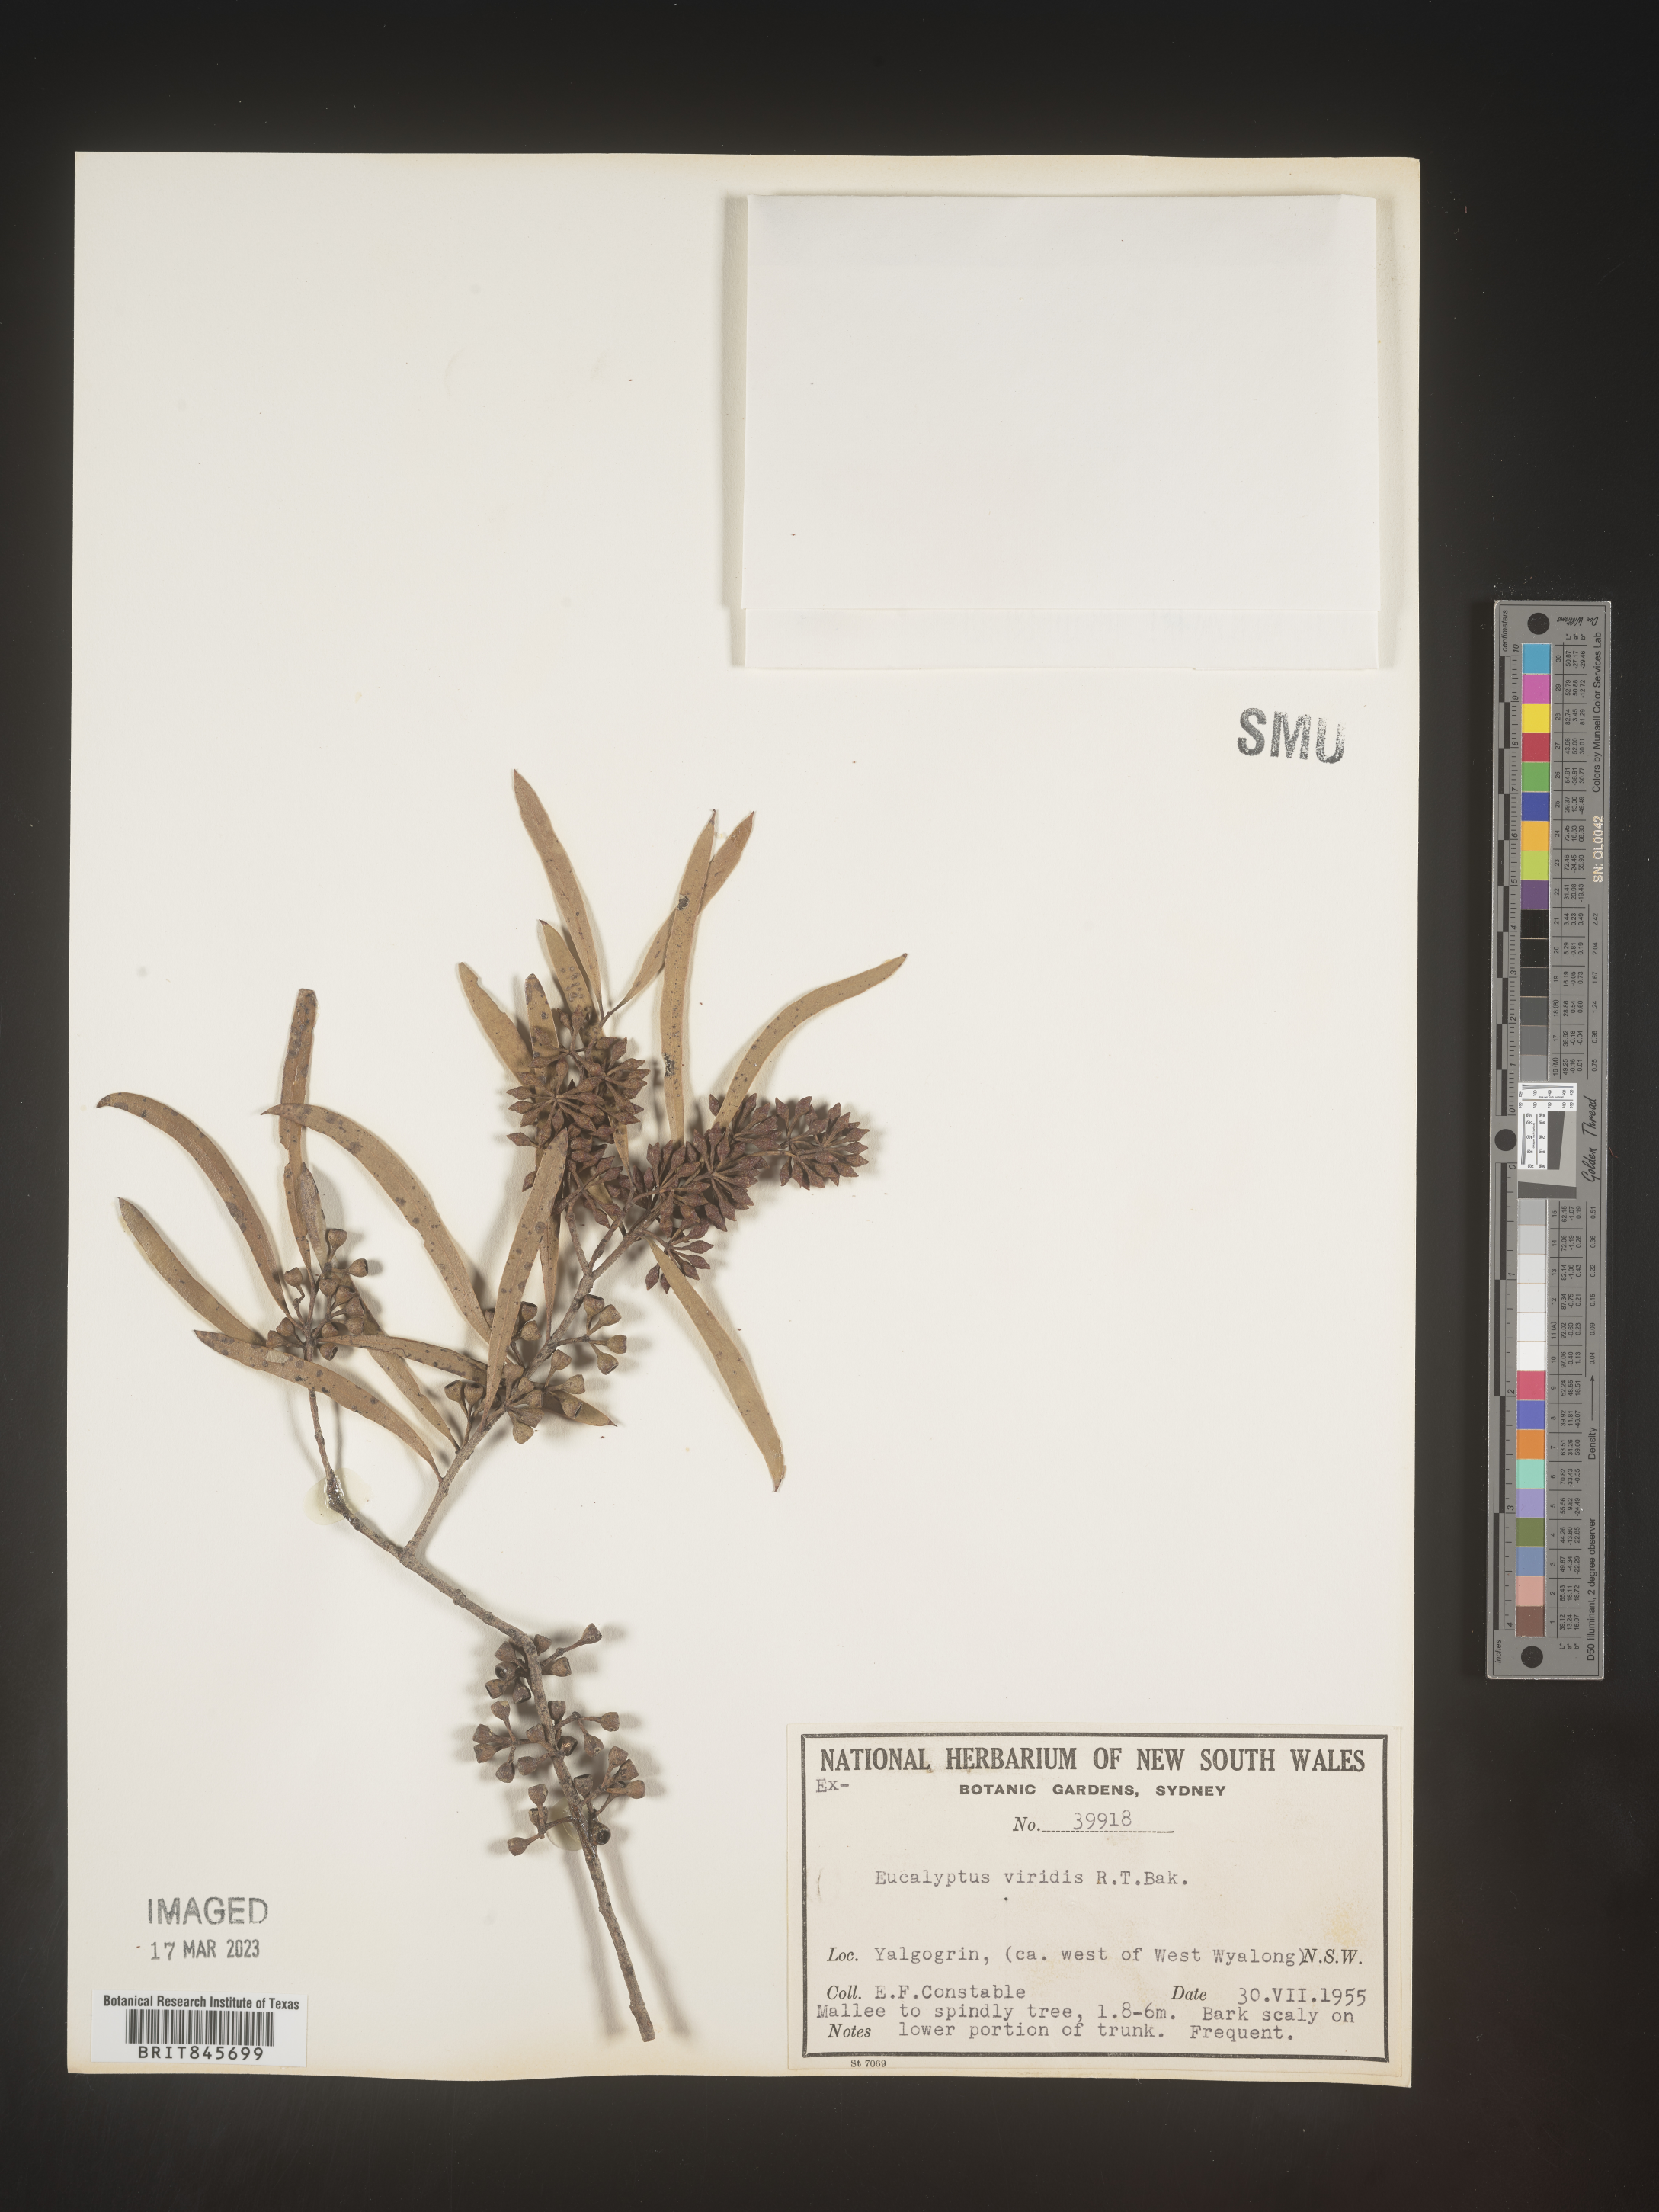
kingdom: Plantae
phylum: Tracheophyta
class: Magnoliopsida
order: Myrtales
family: Myrtaceae
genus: Eucalyptus
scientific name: Eucalyptus
